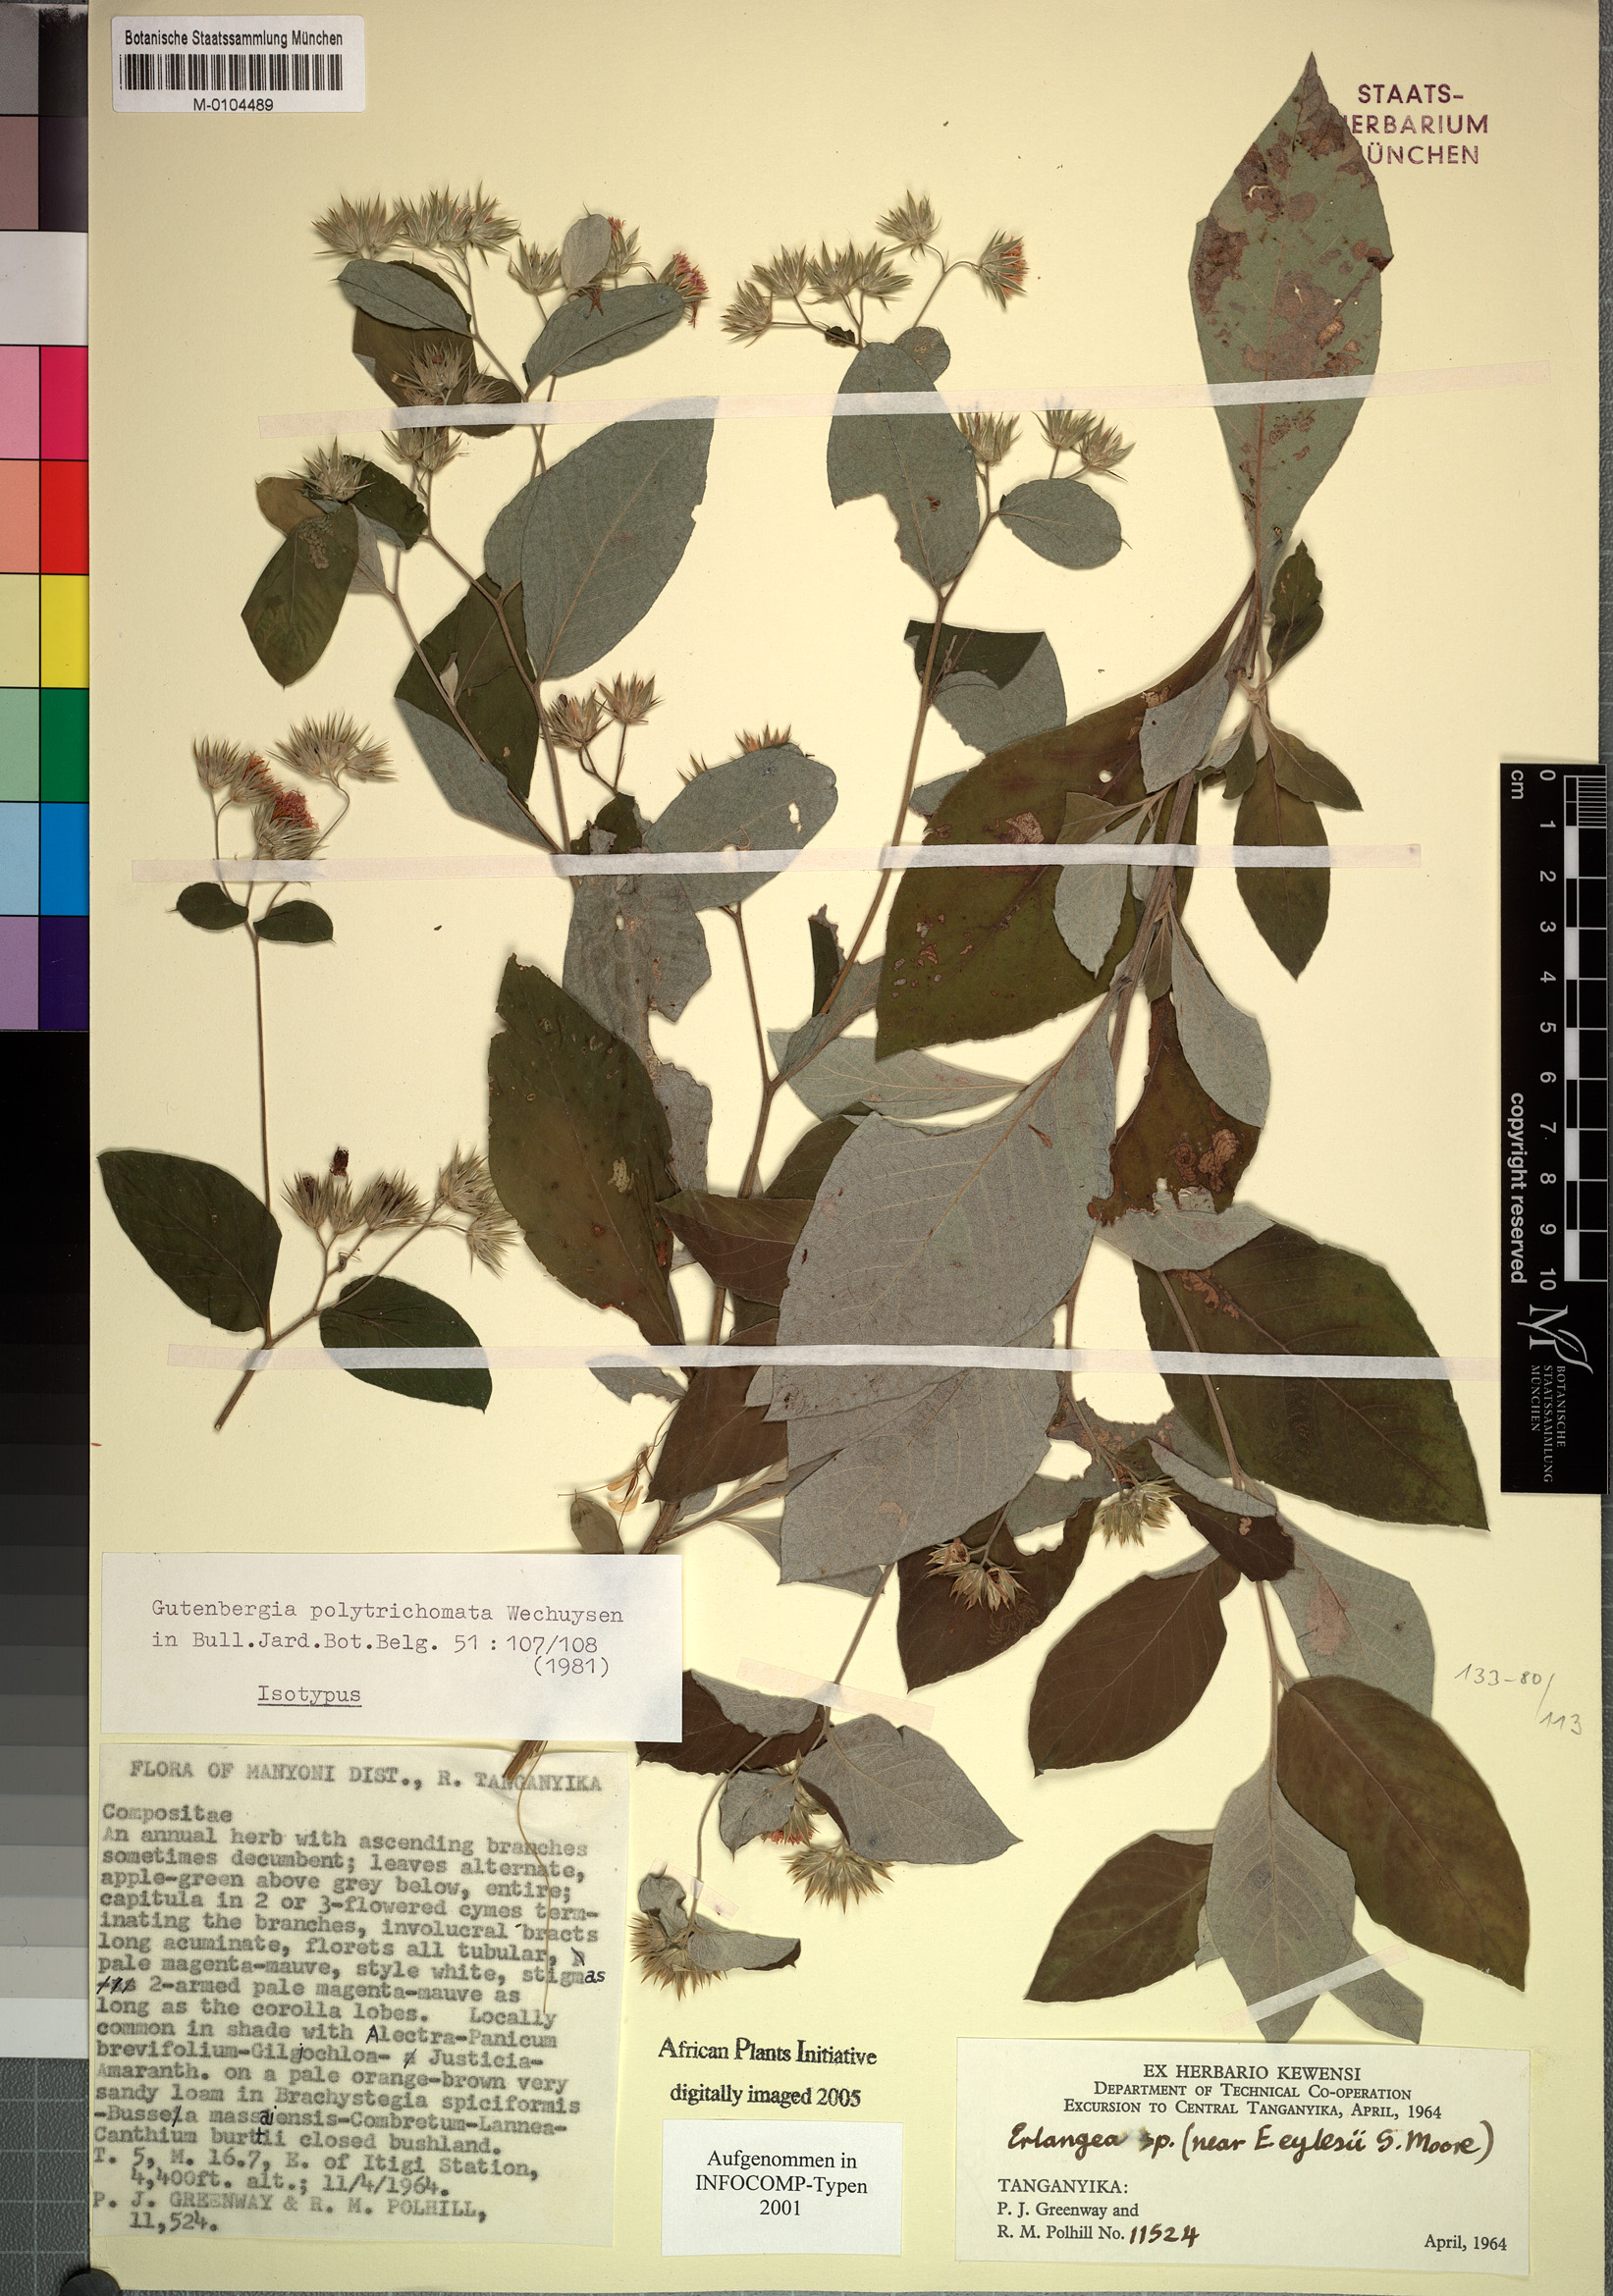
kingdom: Plantae
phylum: Tracheophyta
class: Magnoliopsida
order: Asterales
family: Asteraceae
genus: Cyanthillium
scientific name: Cyanthillium polytrichomata
